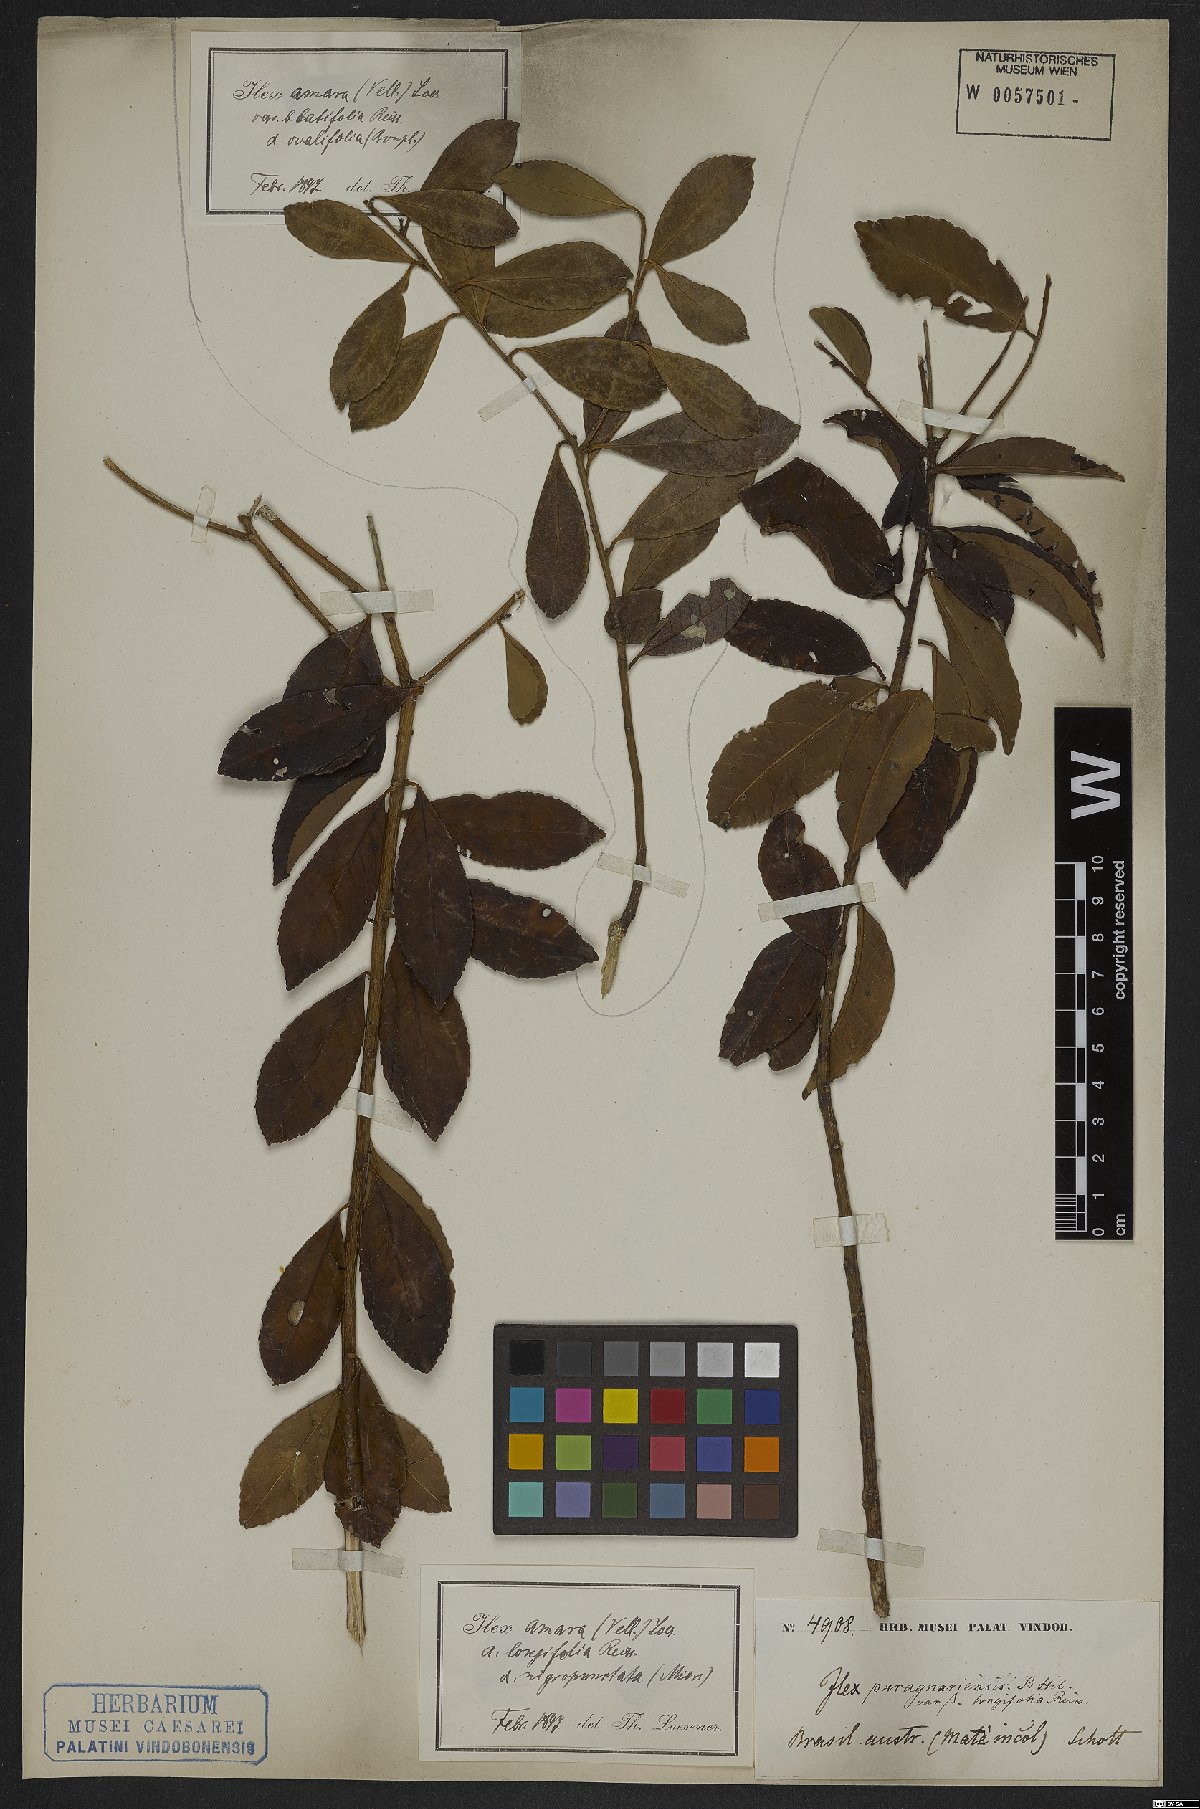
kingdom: Plantae
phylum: Tracheophyta
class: Magnoliopsida
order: Aquifoliales
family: Aquifoliaceae
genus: Ilex
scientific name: Ilex dumosa
